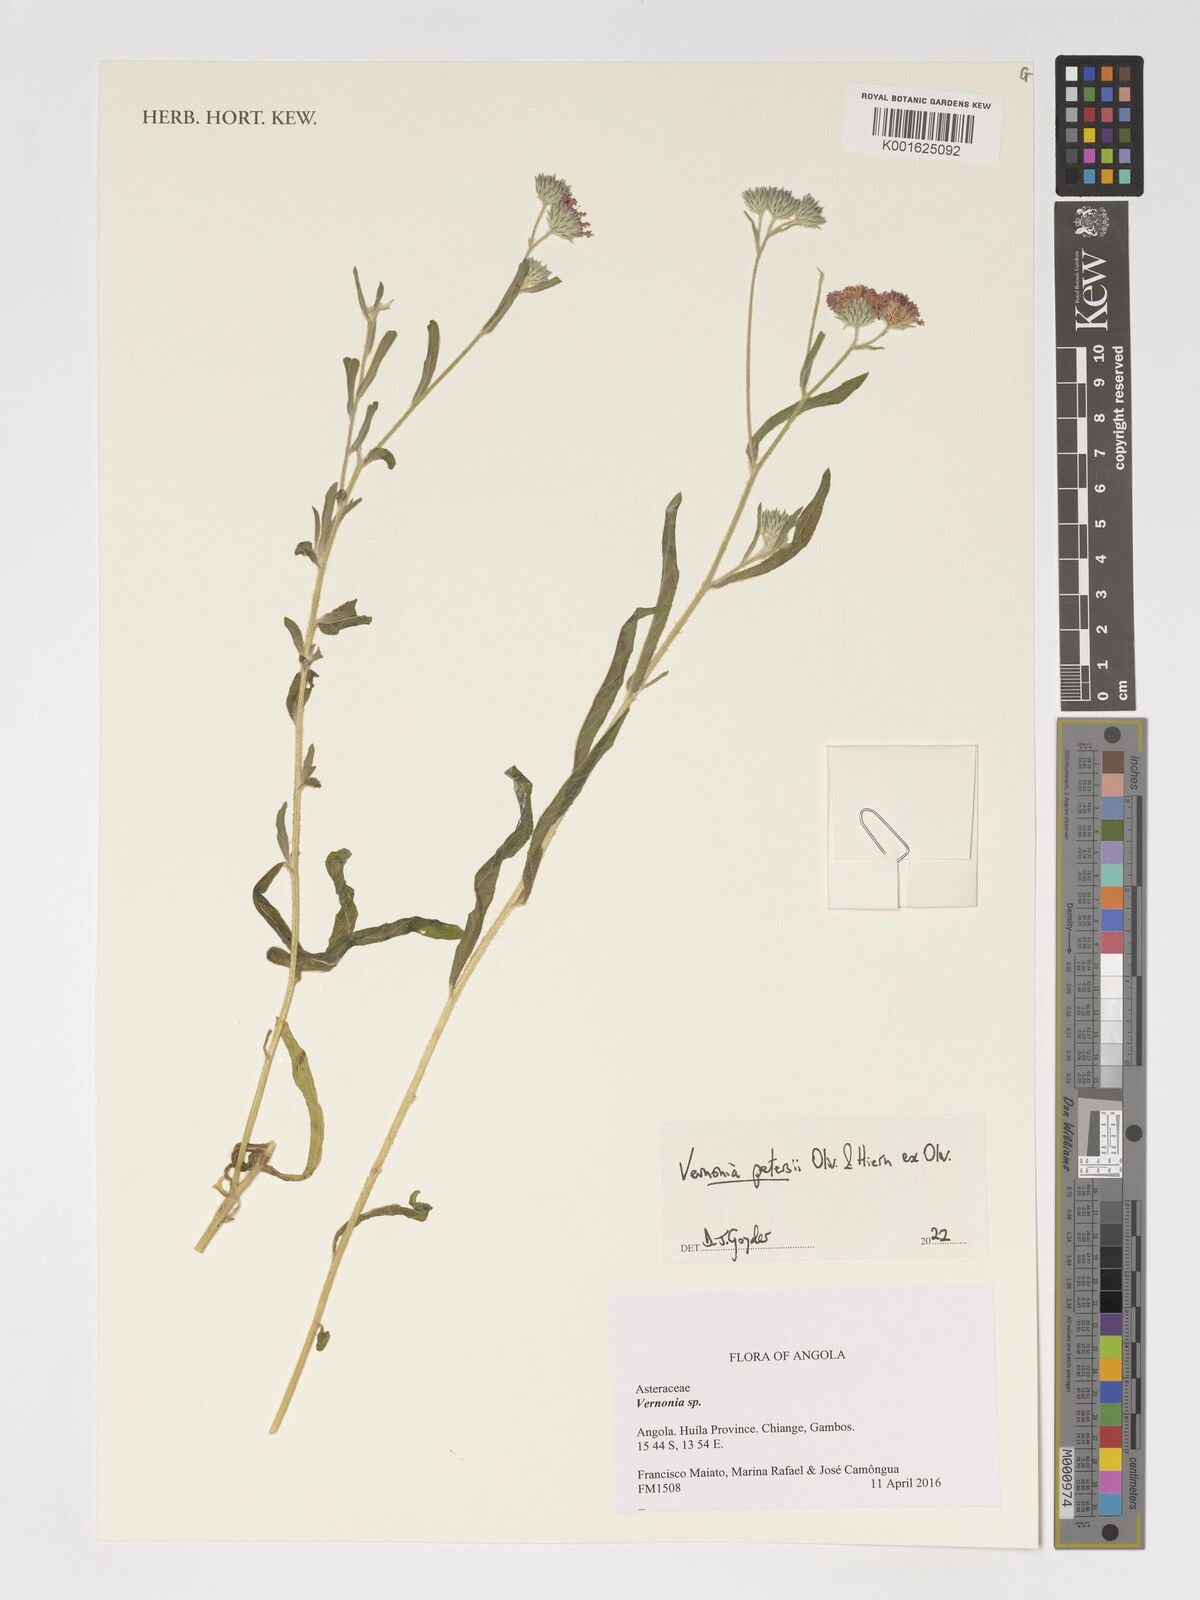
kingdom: Plantae
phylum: Tracheophyta
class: Magnoliopsida
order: Asterales
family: Asteraceae
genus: Vernoniastrum
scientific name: Vernoniastrum latifolium
